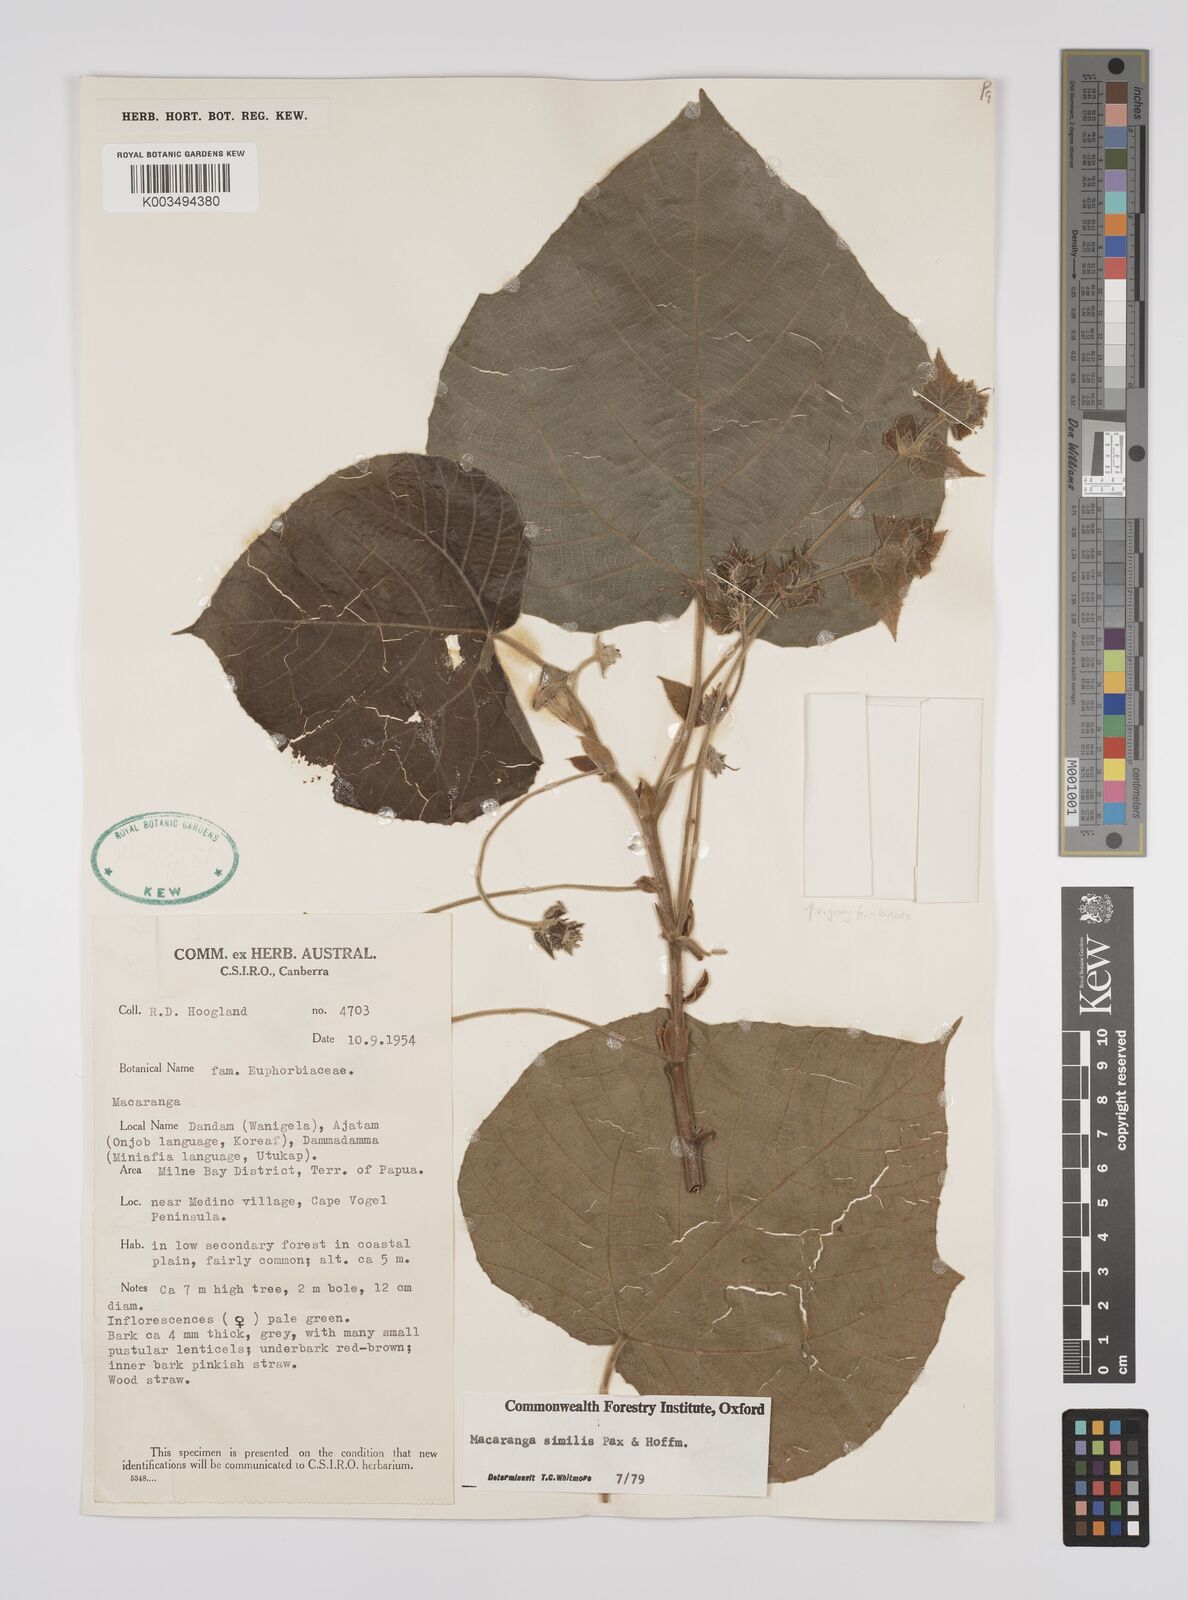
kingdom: Plantae
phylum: Tracheophyta
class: Magnoliopsida
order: Malpighiales
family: Euphorbiaceae
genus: Macaranga
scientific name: Macaranga similis
